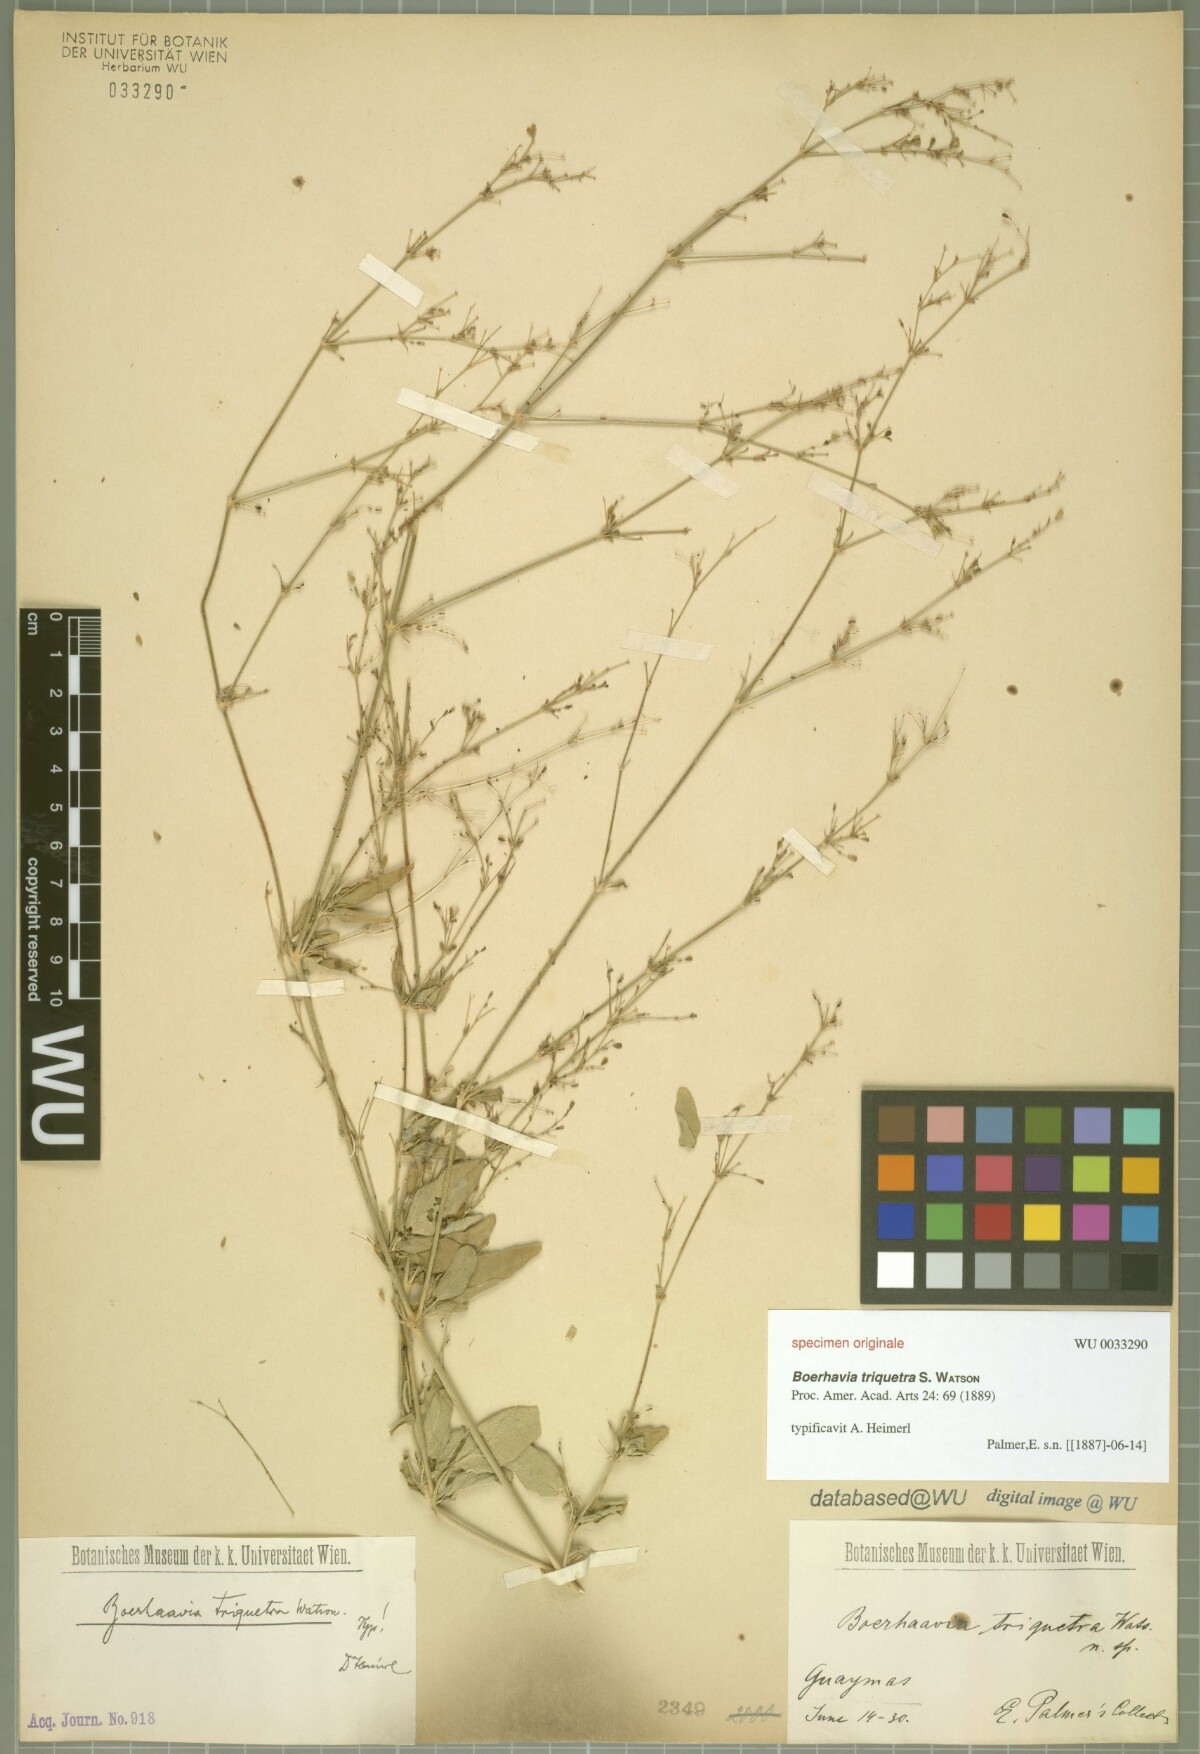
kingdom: Plantae
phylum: Tracheophyta
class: Magnoliopsida
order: Caryophyllales
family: Nyctaginaceae
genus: Boerhavia
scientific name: Boerhavia triquetra
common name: Creeping sticky-stem
